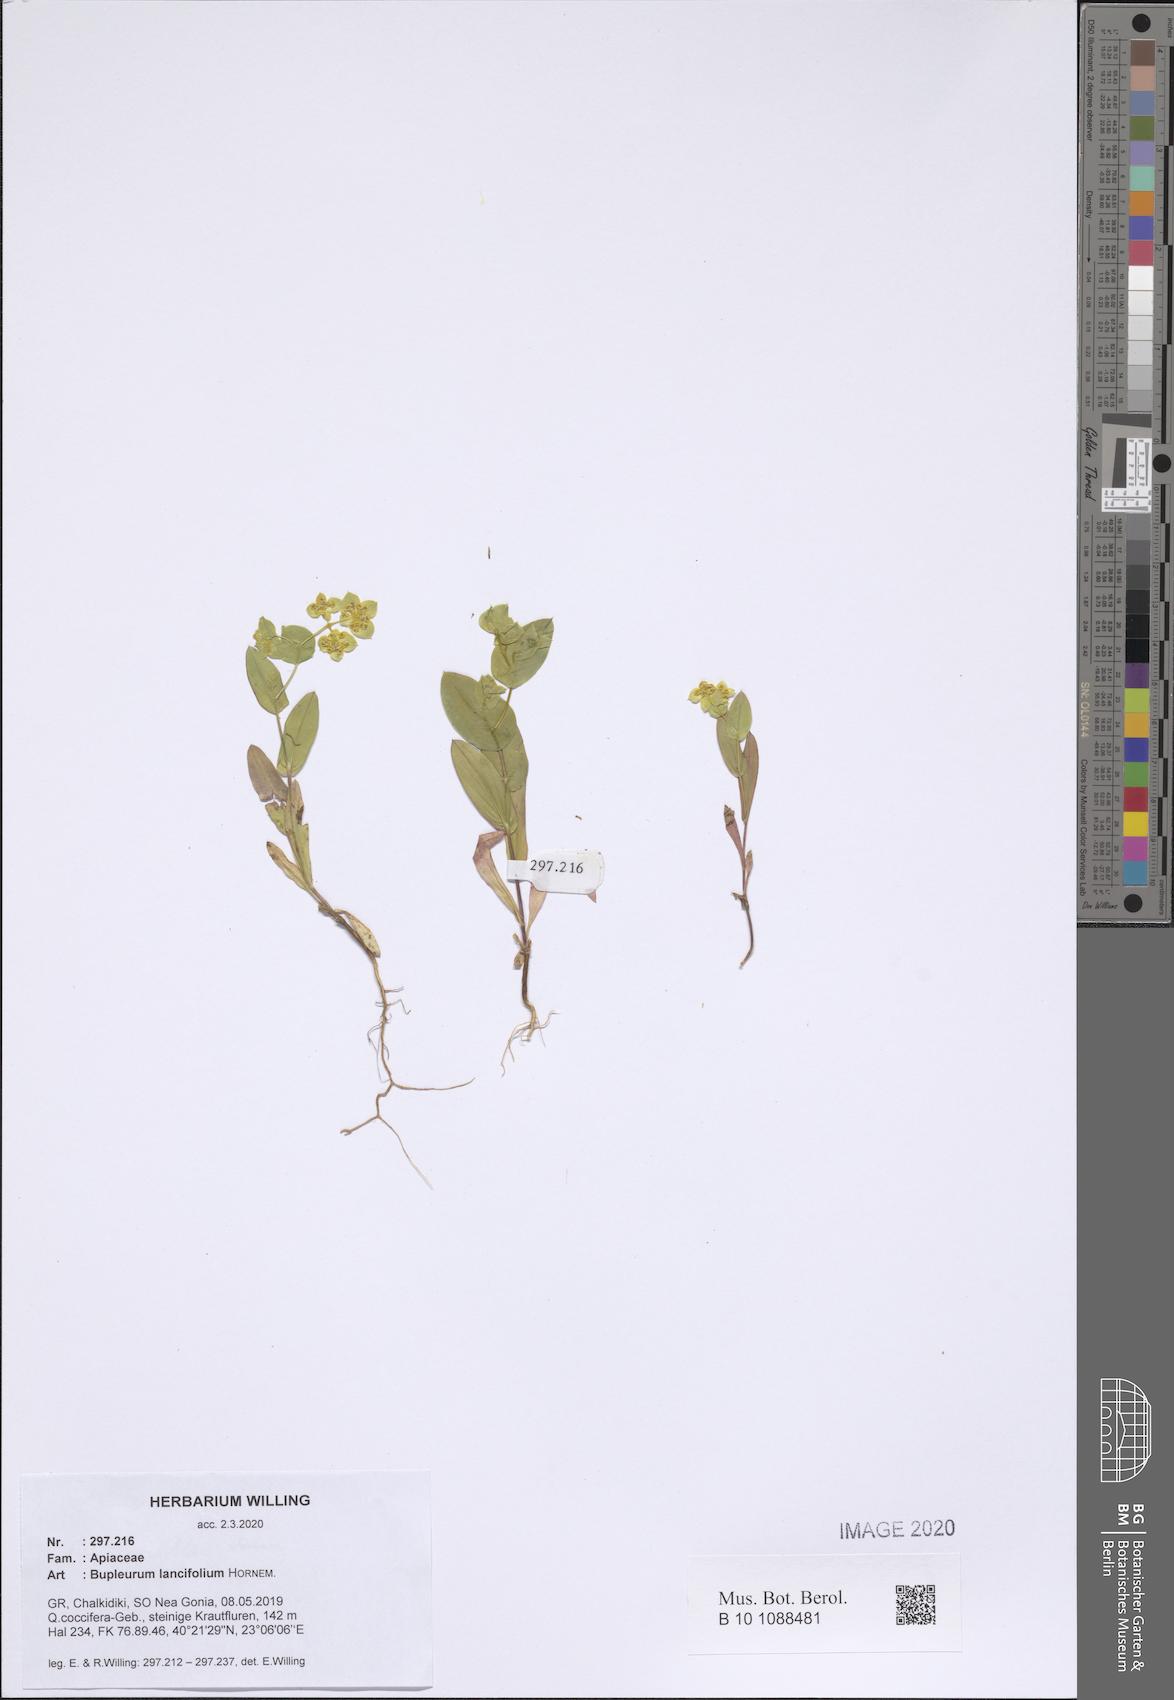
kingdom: Plantae
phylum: Tracheophyta
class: Magnoliopsida
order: Apiales
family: Apiaceae
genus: Bupleurum
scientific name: Bupleurum lancifolium
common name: False thorow-wax
